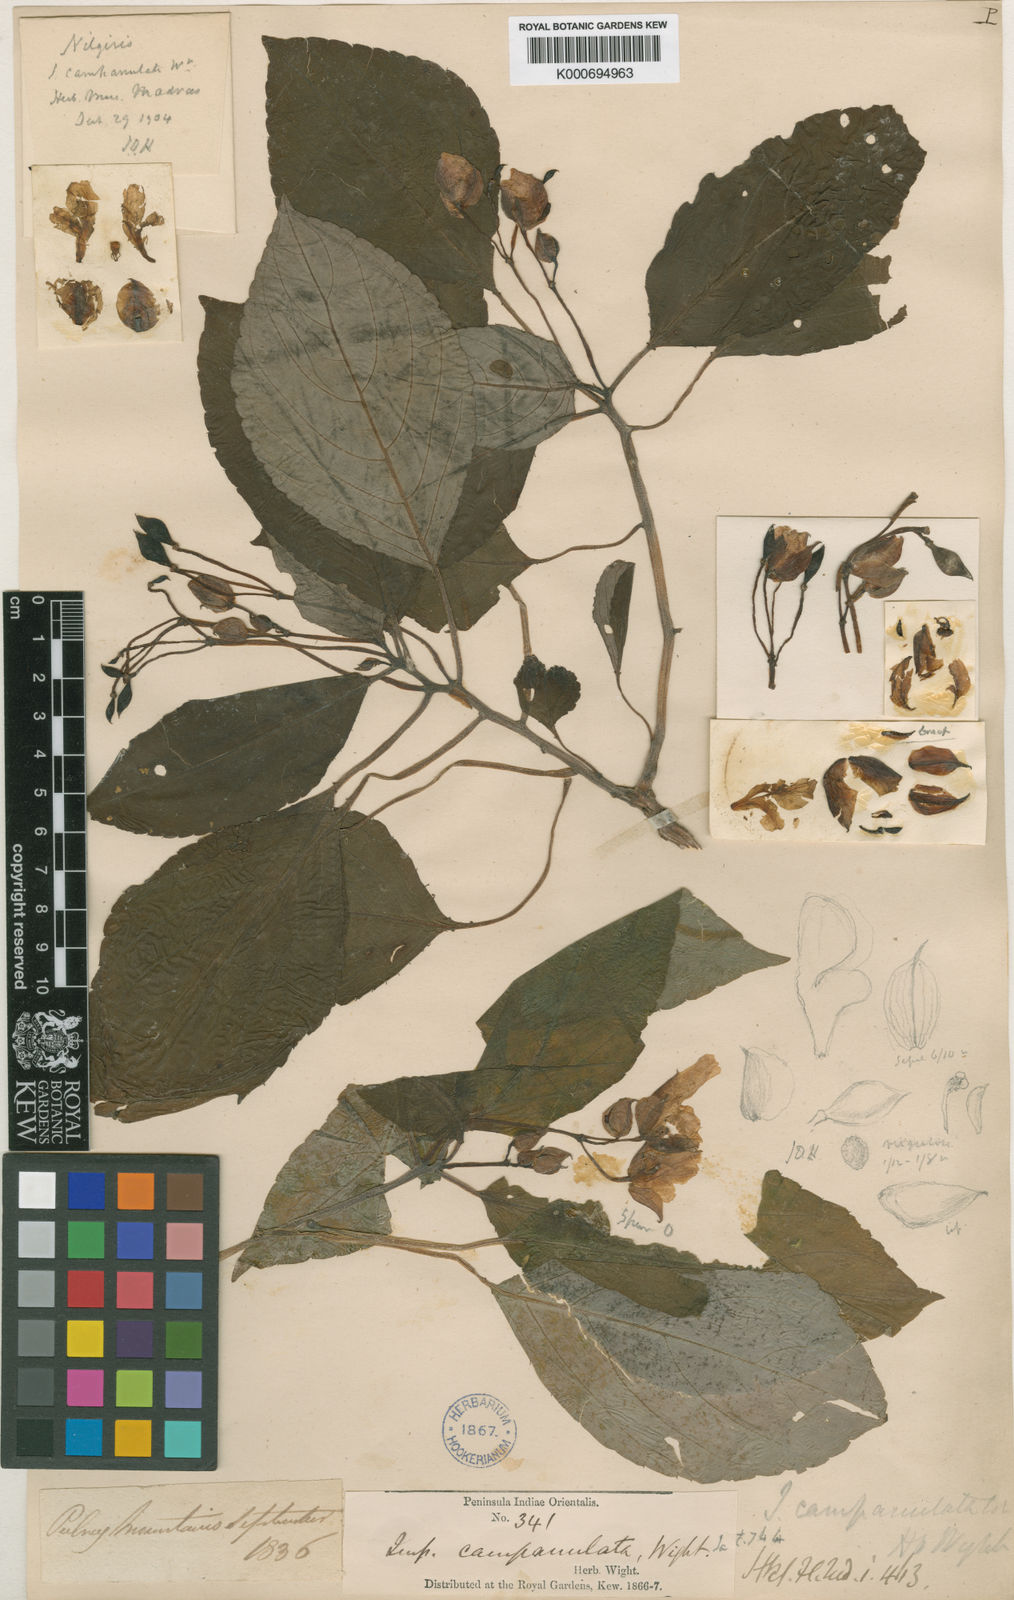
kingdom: Plantae
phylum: Tracheophyta
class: Magnoliopsida
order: Ericales
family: Balsaminaceae
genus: Impatiens
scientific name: Impatiens campanulata
